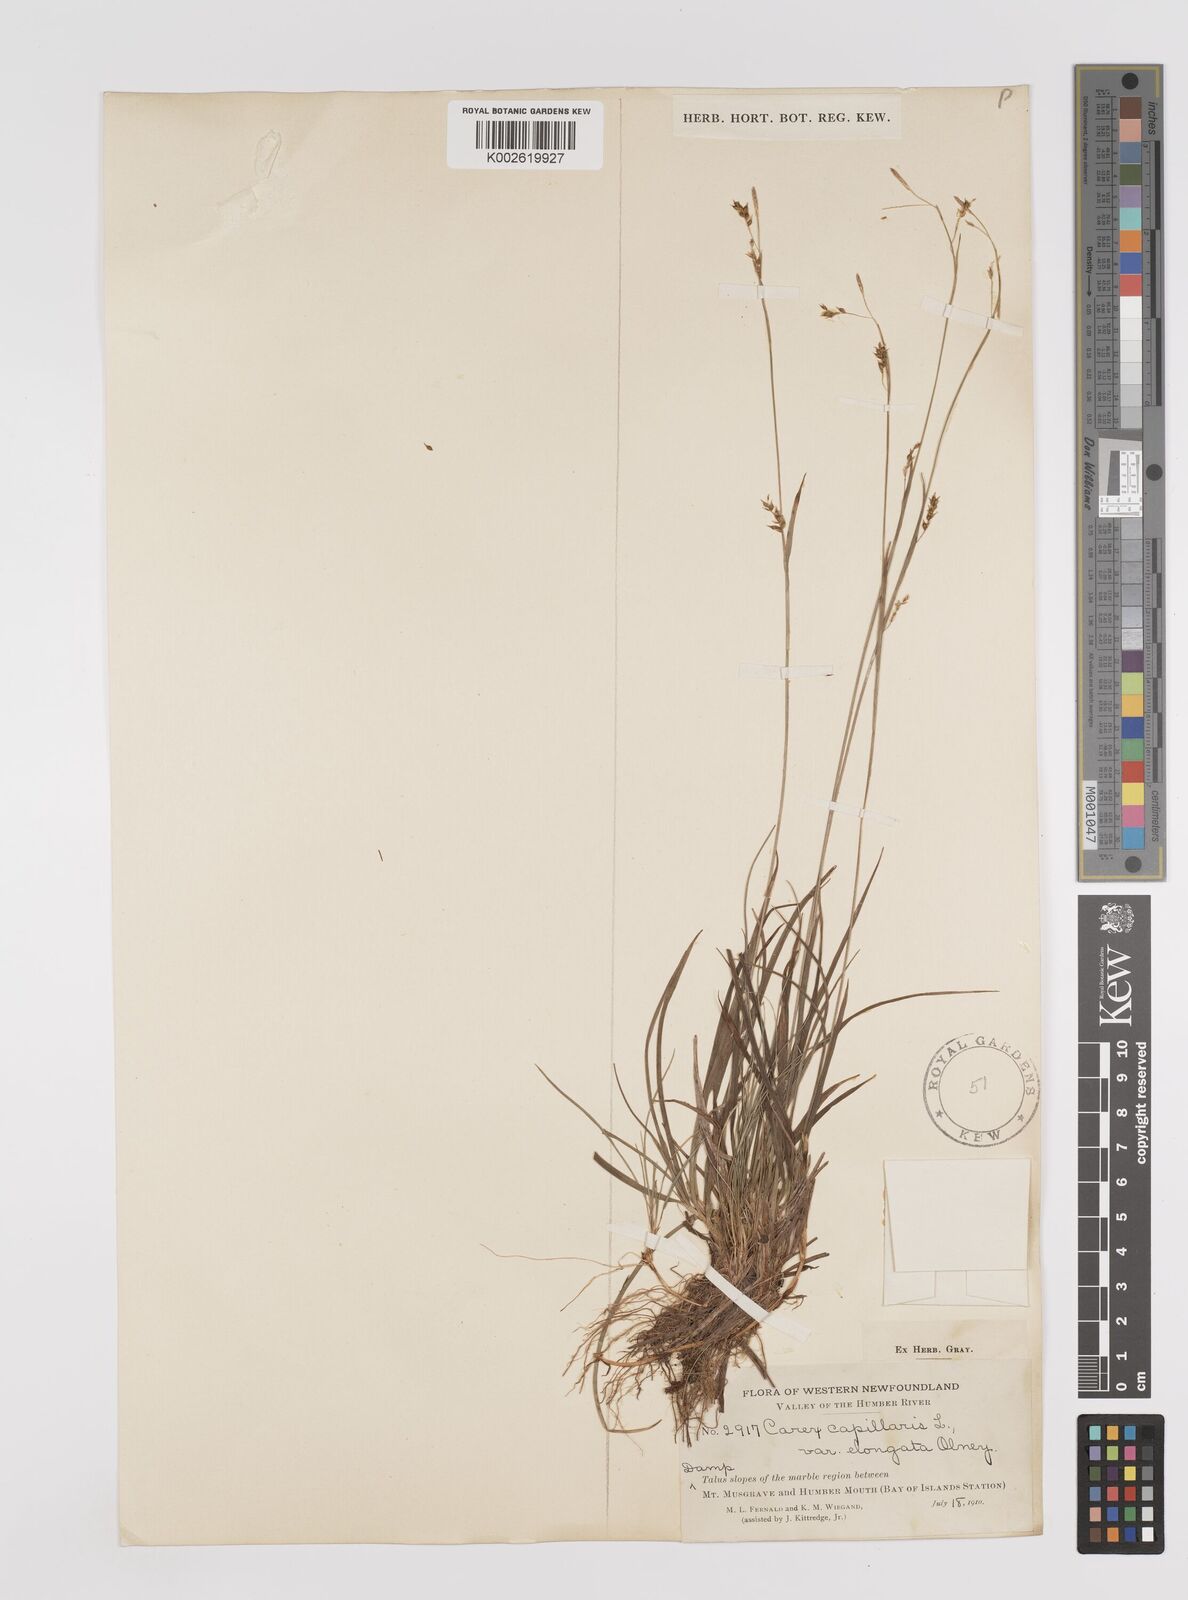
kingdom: Plantae
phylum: Tracheophyta
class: Liliopsida
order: Poales
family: Cyperaceae
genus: Carex
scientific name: Carex capillaris
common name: Hair sedge
